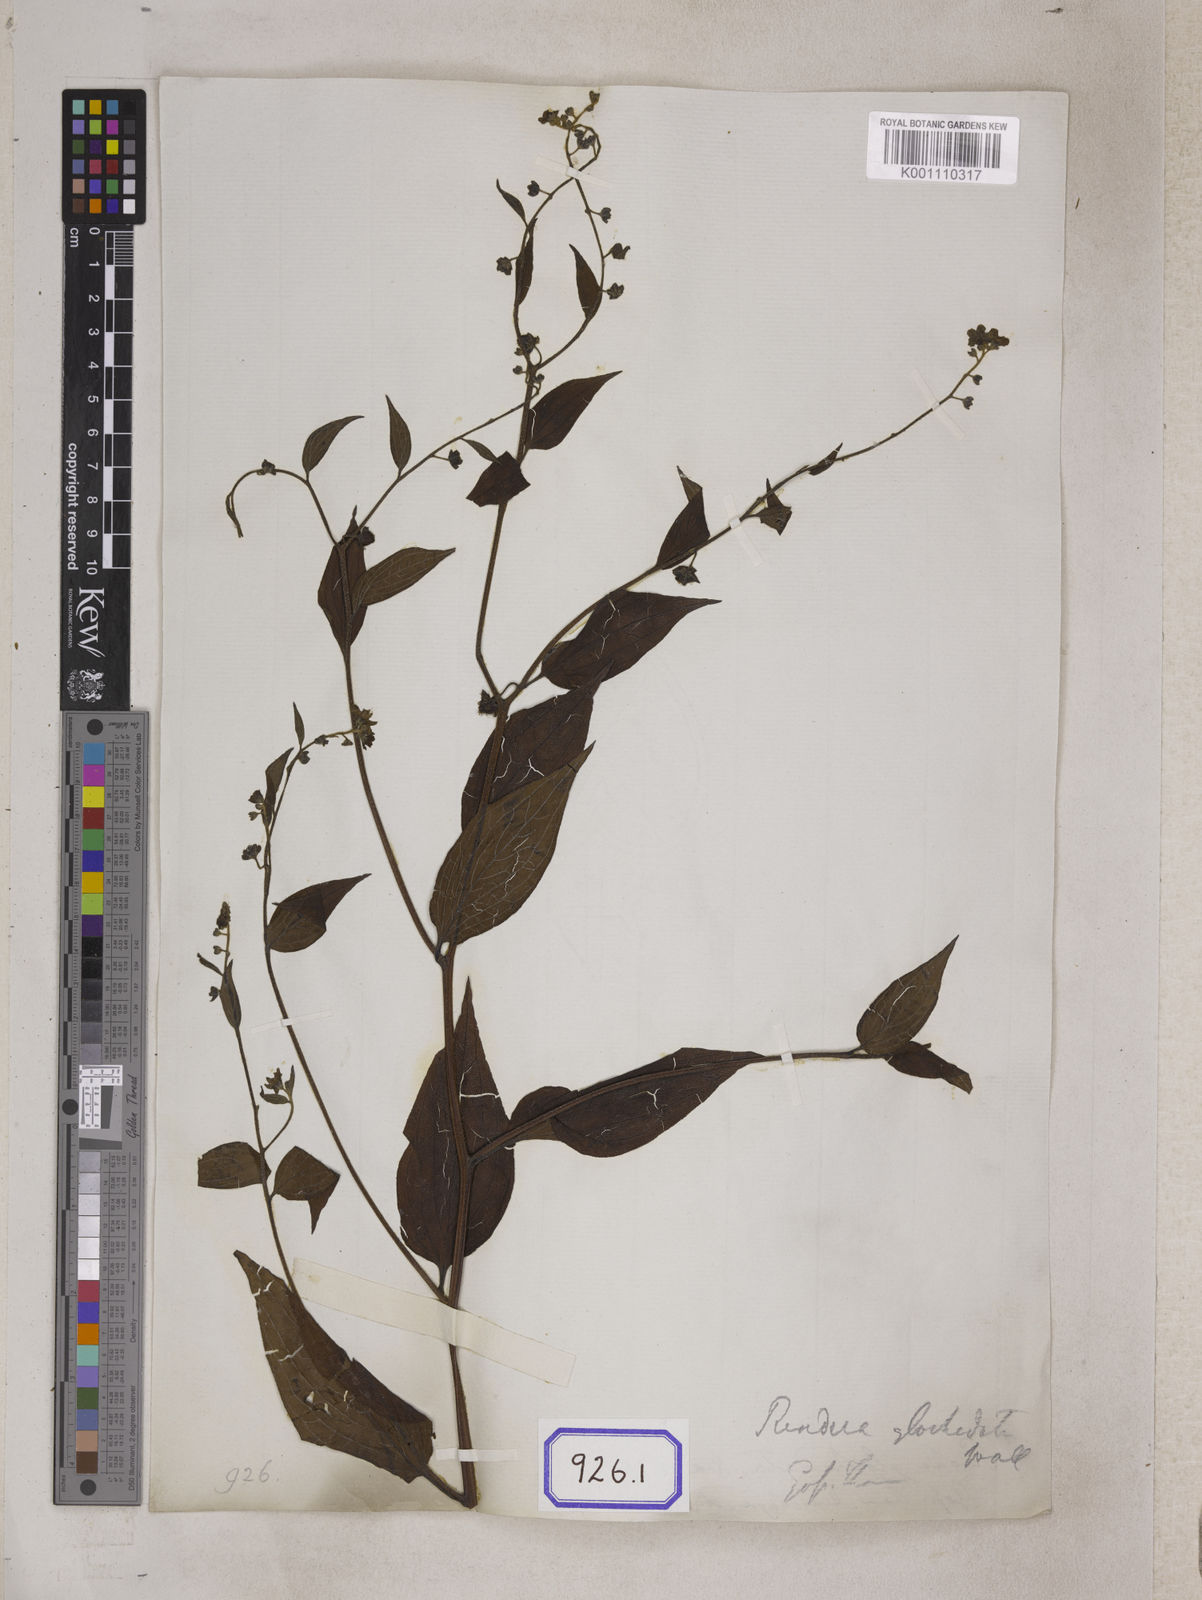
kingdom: Plantae
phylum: Tracheophyta
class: Magnoliopsida
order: Boraginales
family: Boraginaceae
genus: Hackelia
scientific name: Hackelia uncinata
